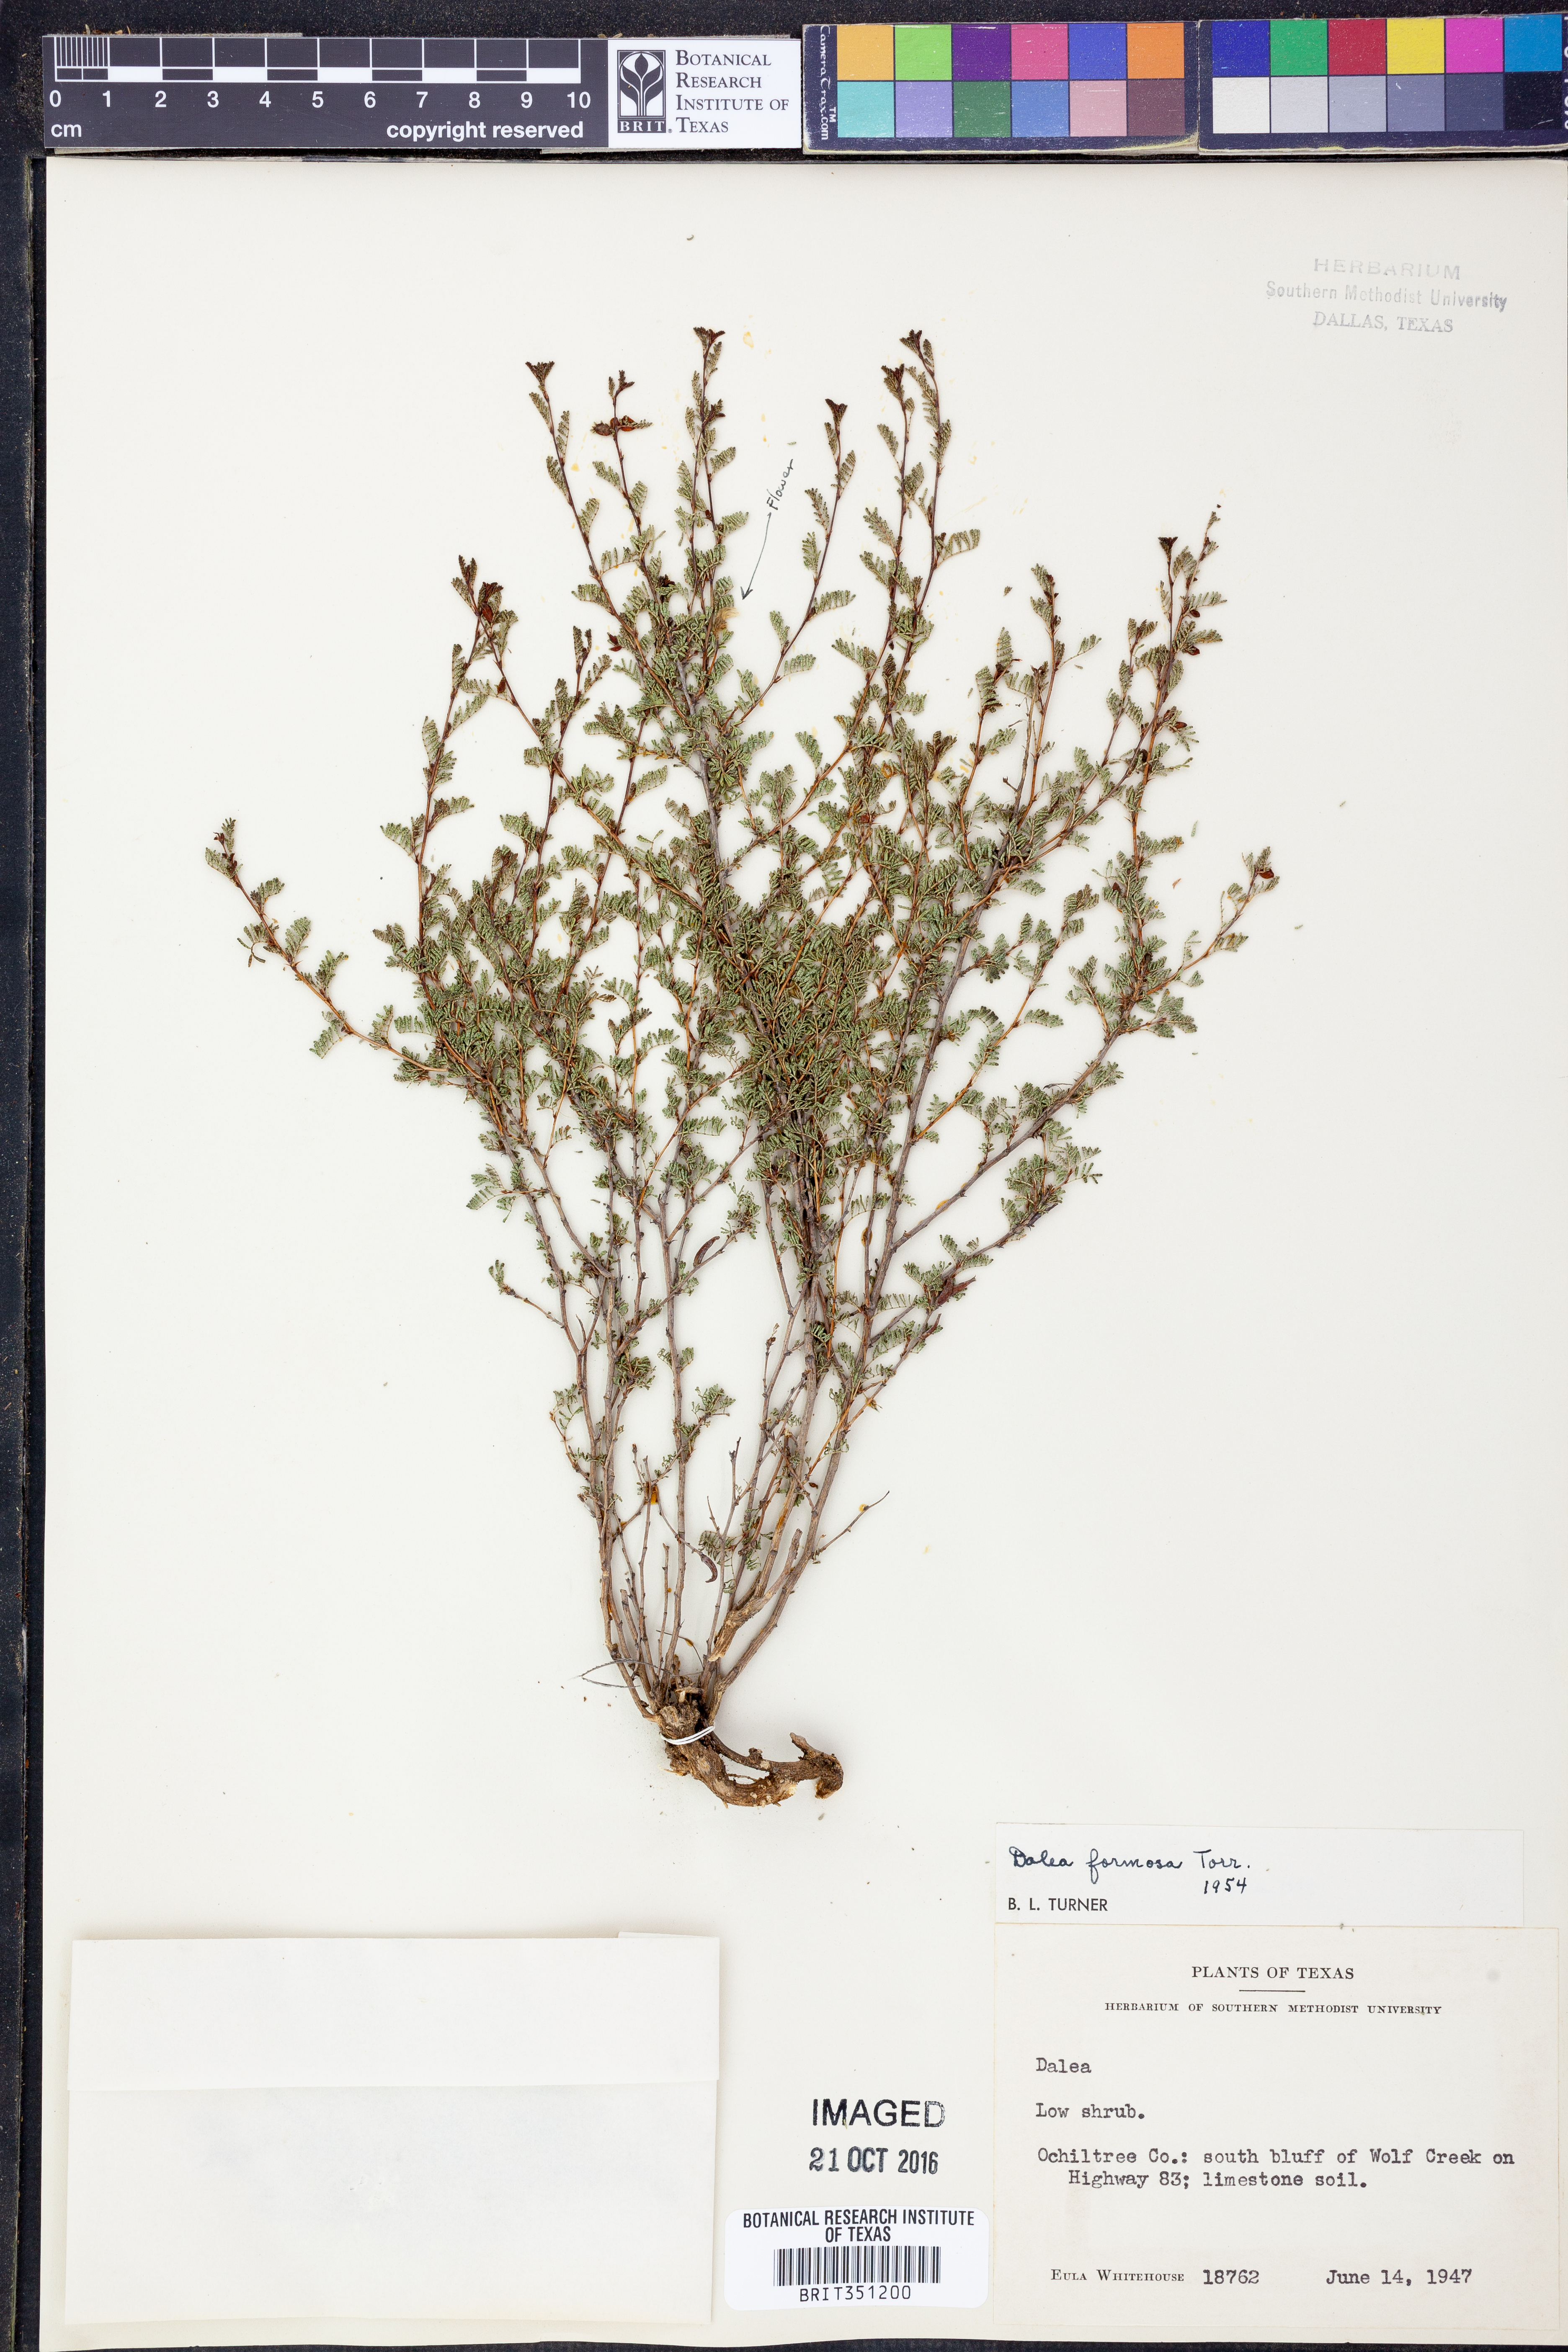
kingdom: Plantae
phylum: Tracheophyta
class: Magnoliopsida
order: Fabales
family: Fabaceae
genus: Dalea
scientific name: Dalea formosa
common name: Feather-plume dalea
